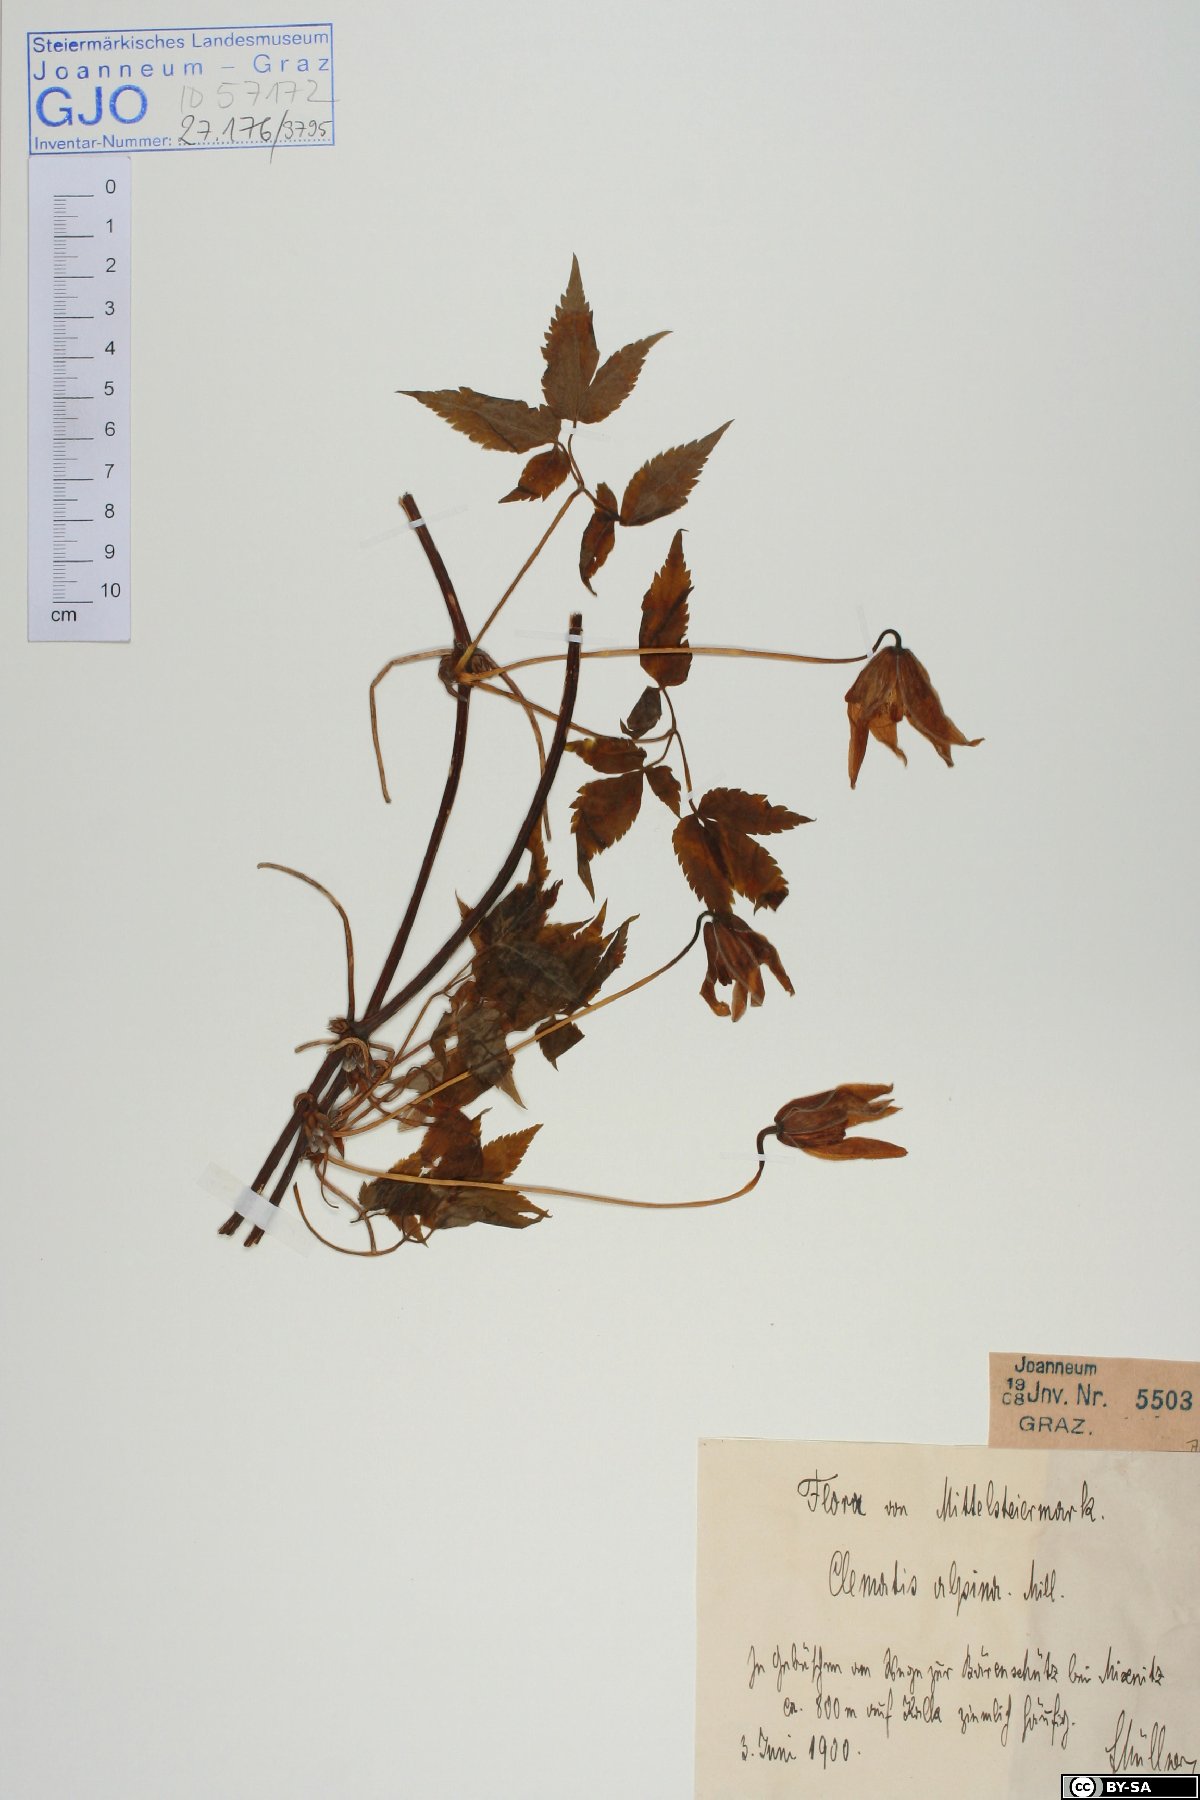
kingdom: Plantae
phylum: Tracheophyta
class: Magnoliopsida
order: Ranunculales
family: Ranunculaceae
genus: Clematis
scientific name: Clematis alpina
